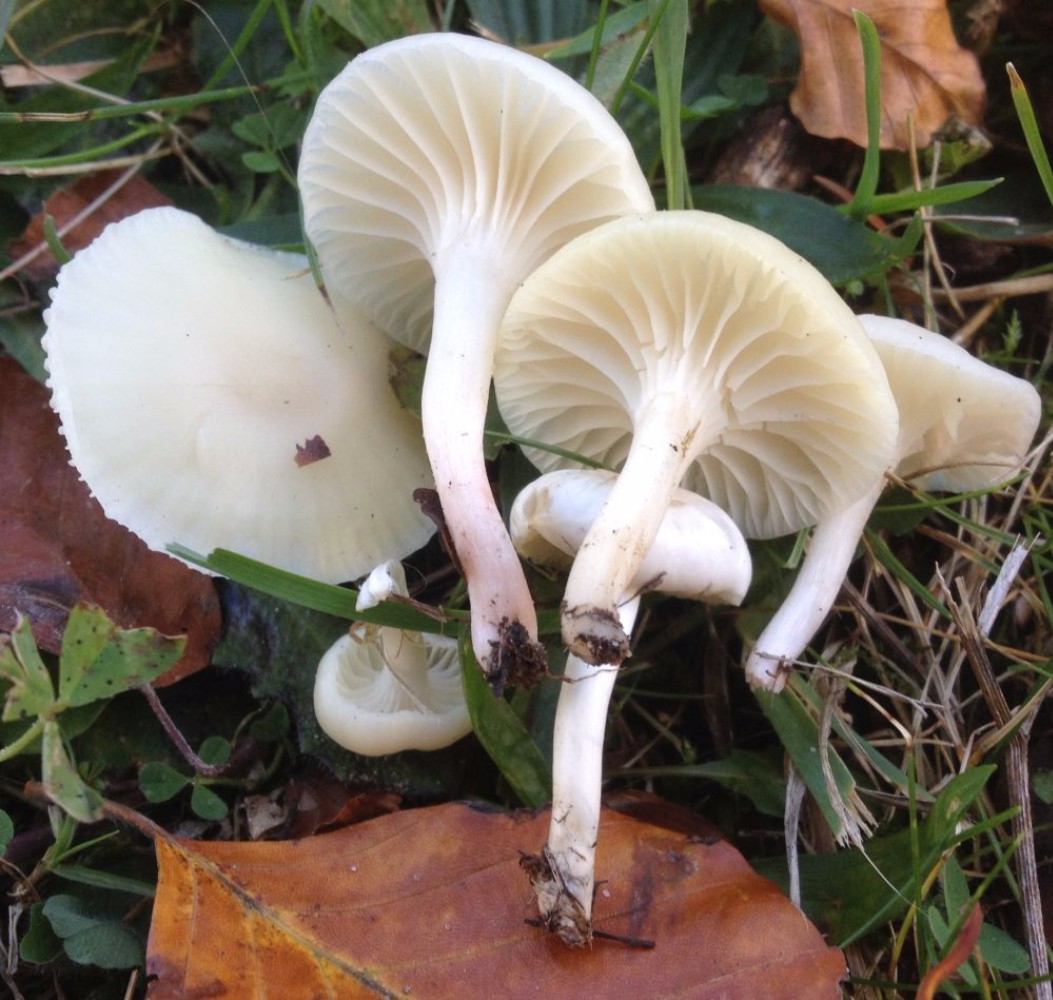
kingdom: Fungi
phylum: Basidiomycota
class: Agaricomycetes
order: Agaricales
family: Hygrophoraceae
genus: Cuphophyllus
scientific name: Cuphophyllus virgineus
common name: snehvid vokshat
